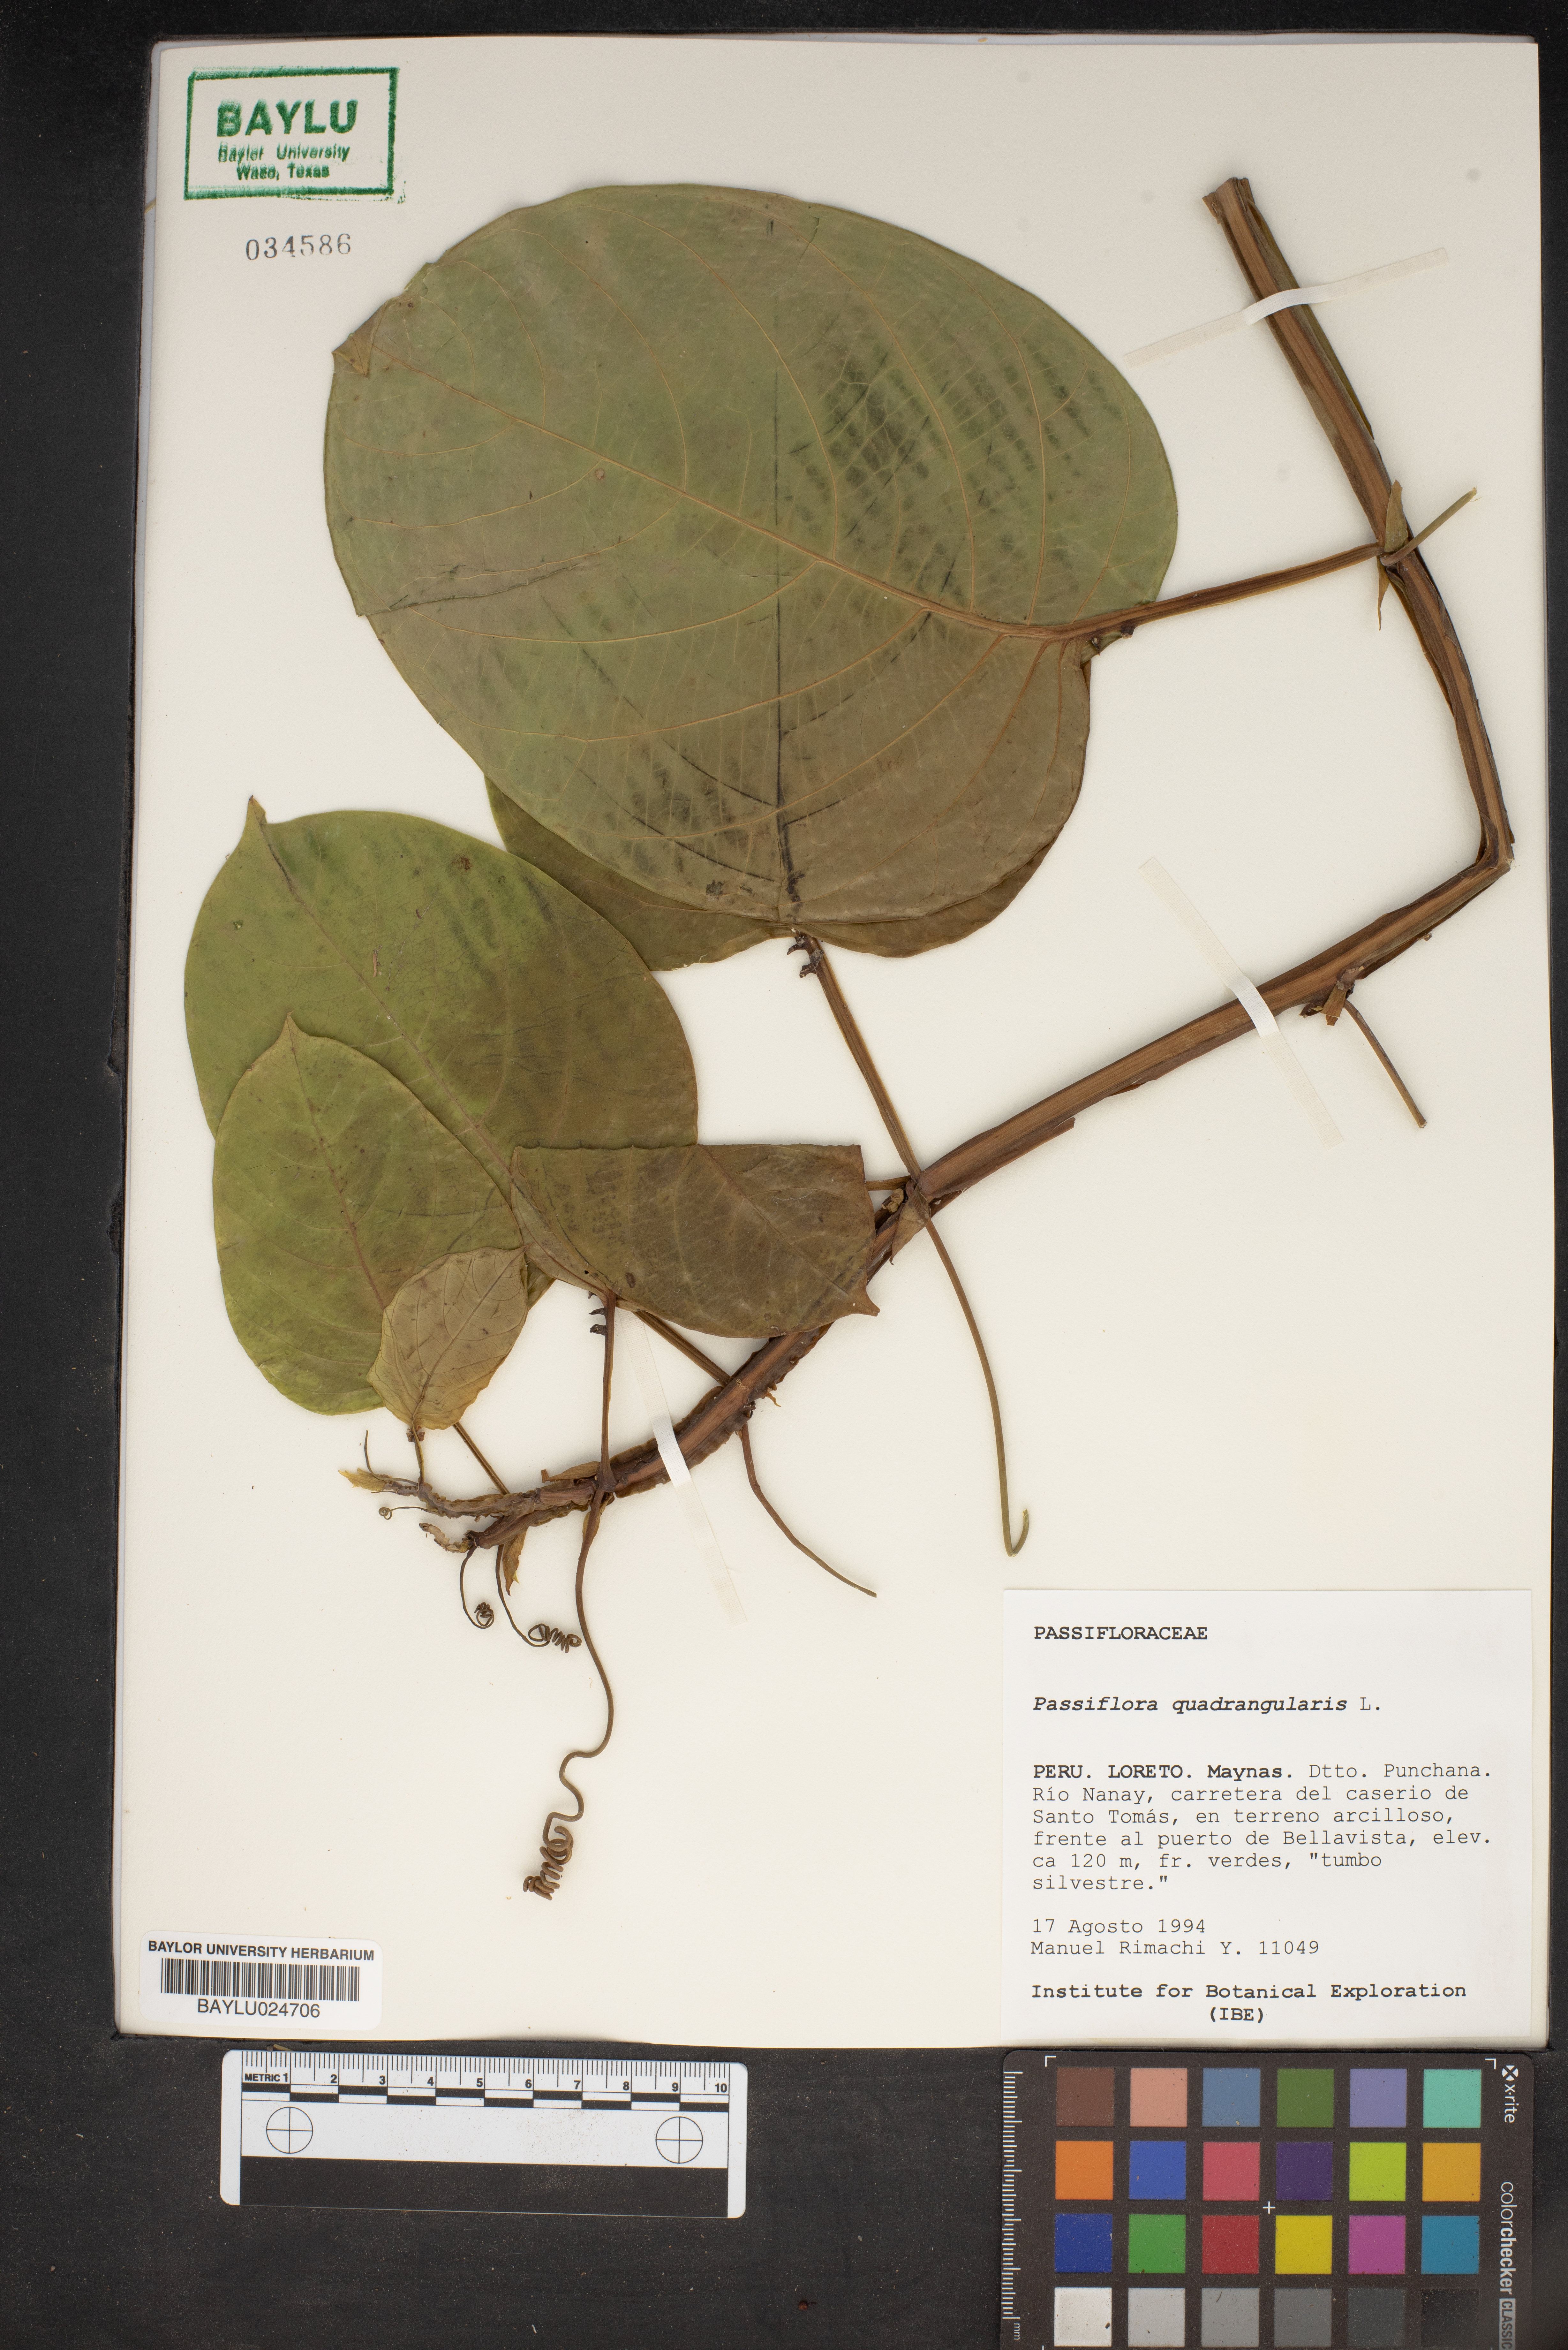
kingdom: Plantae
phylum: Tracheophyta
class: Magnoliopsida
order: Malpighiales
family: Passifloraceae
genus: Passiflora
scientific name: Passiflora quadrangularis
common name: Giant granadilla
